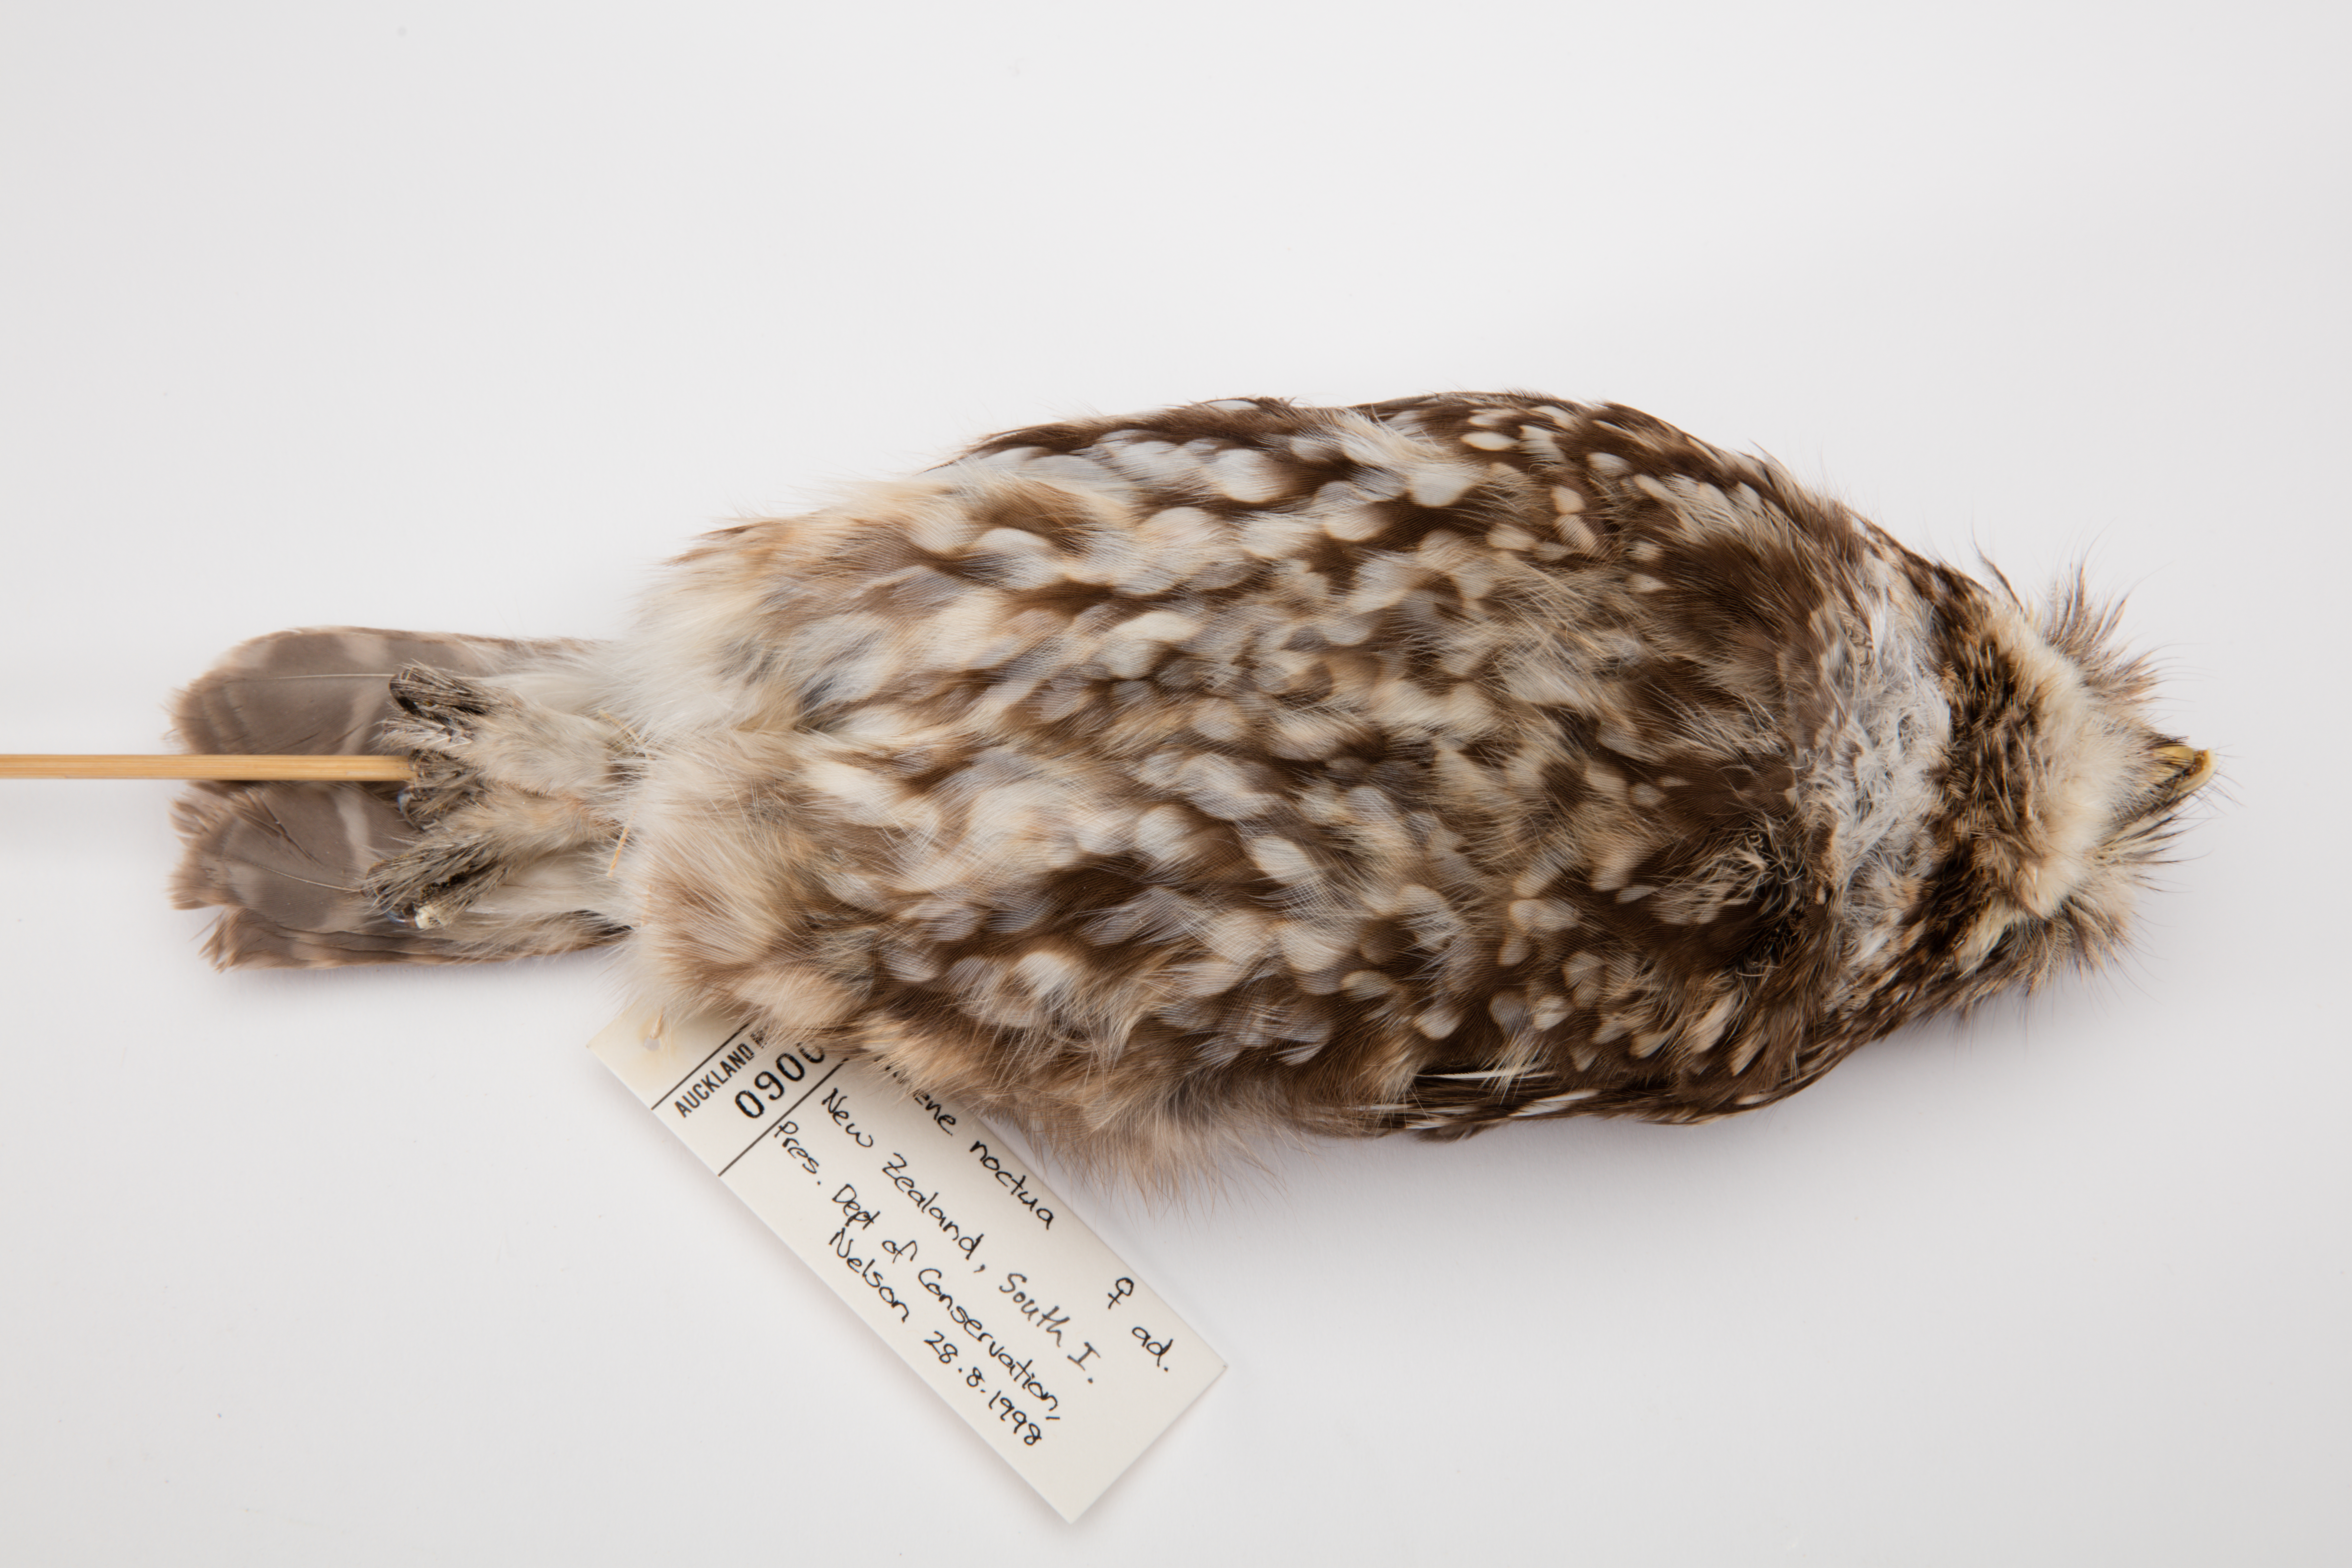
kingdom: Animalia
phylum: Chordata
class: Aves
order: Strigiformes
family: Strigidae
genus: Athene
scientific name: Athene noctua
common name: Little owl
